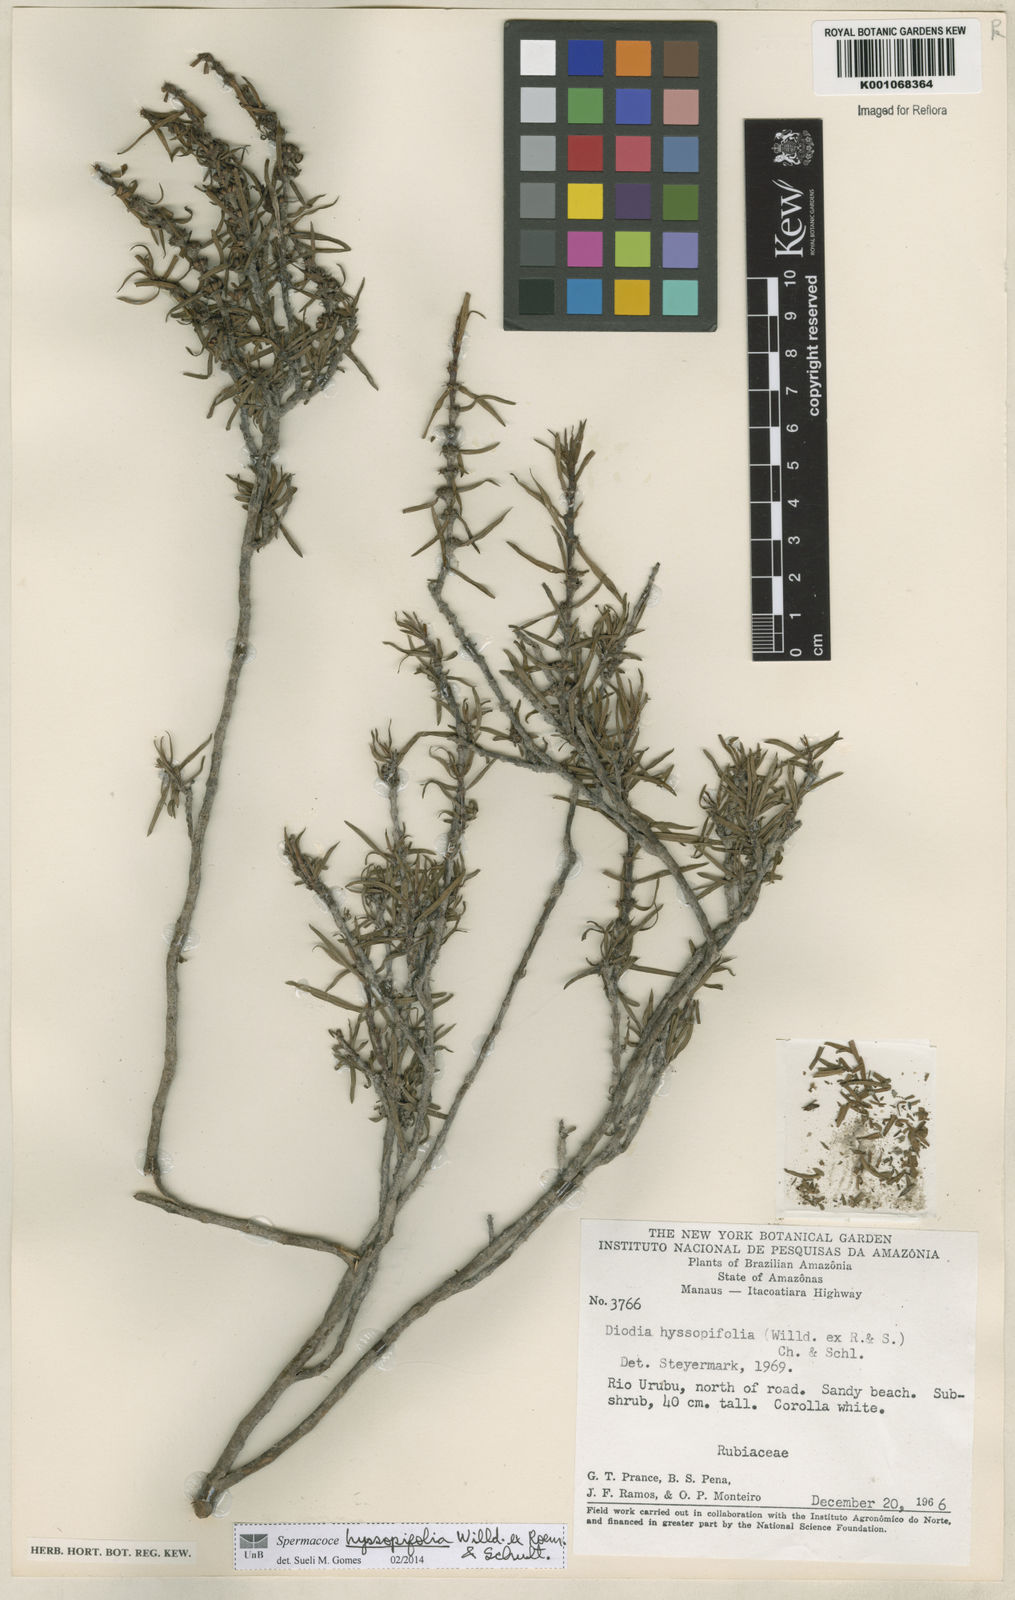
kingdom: Plantae
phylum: Tracheophyta
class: Magnoliopsida
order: Gentianales
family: Rubiaceae
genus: Spermacoce
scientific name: Spermacoce
